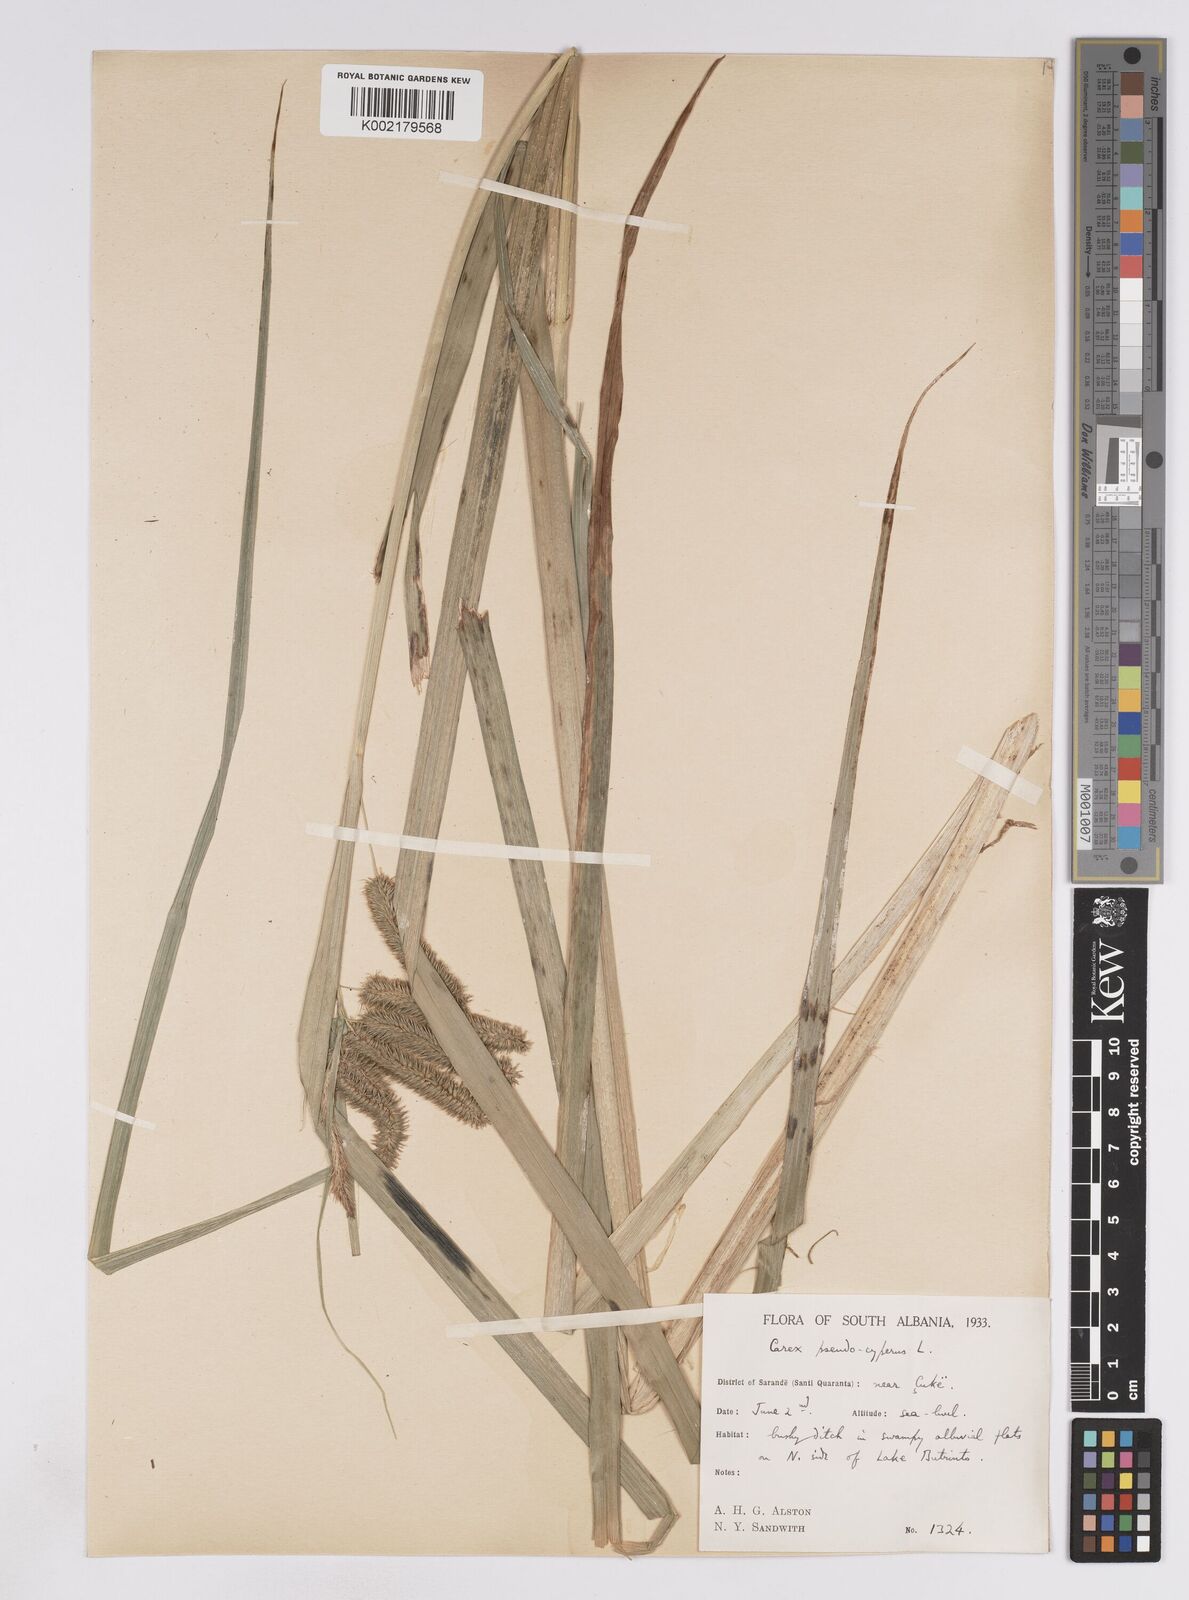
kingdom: Plantae
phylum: Tracheophyta
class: Liliopsida
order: Poales
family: Cyperaceae
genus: Carex
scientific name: Carex pseudocyperus
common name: Cyperus sedge
